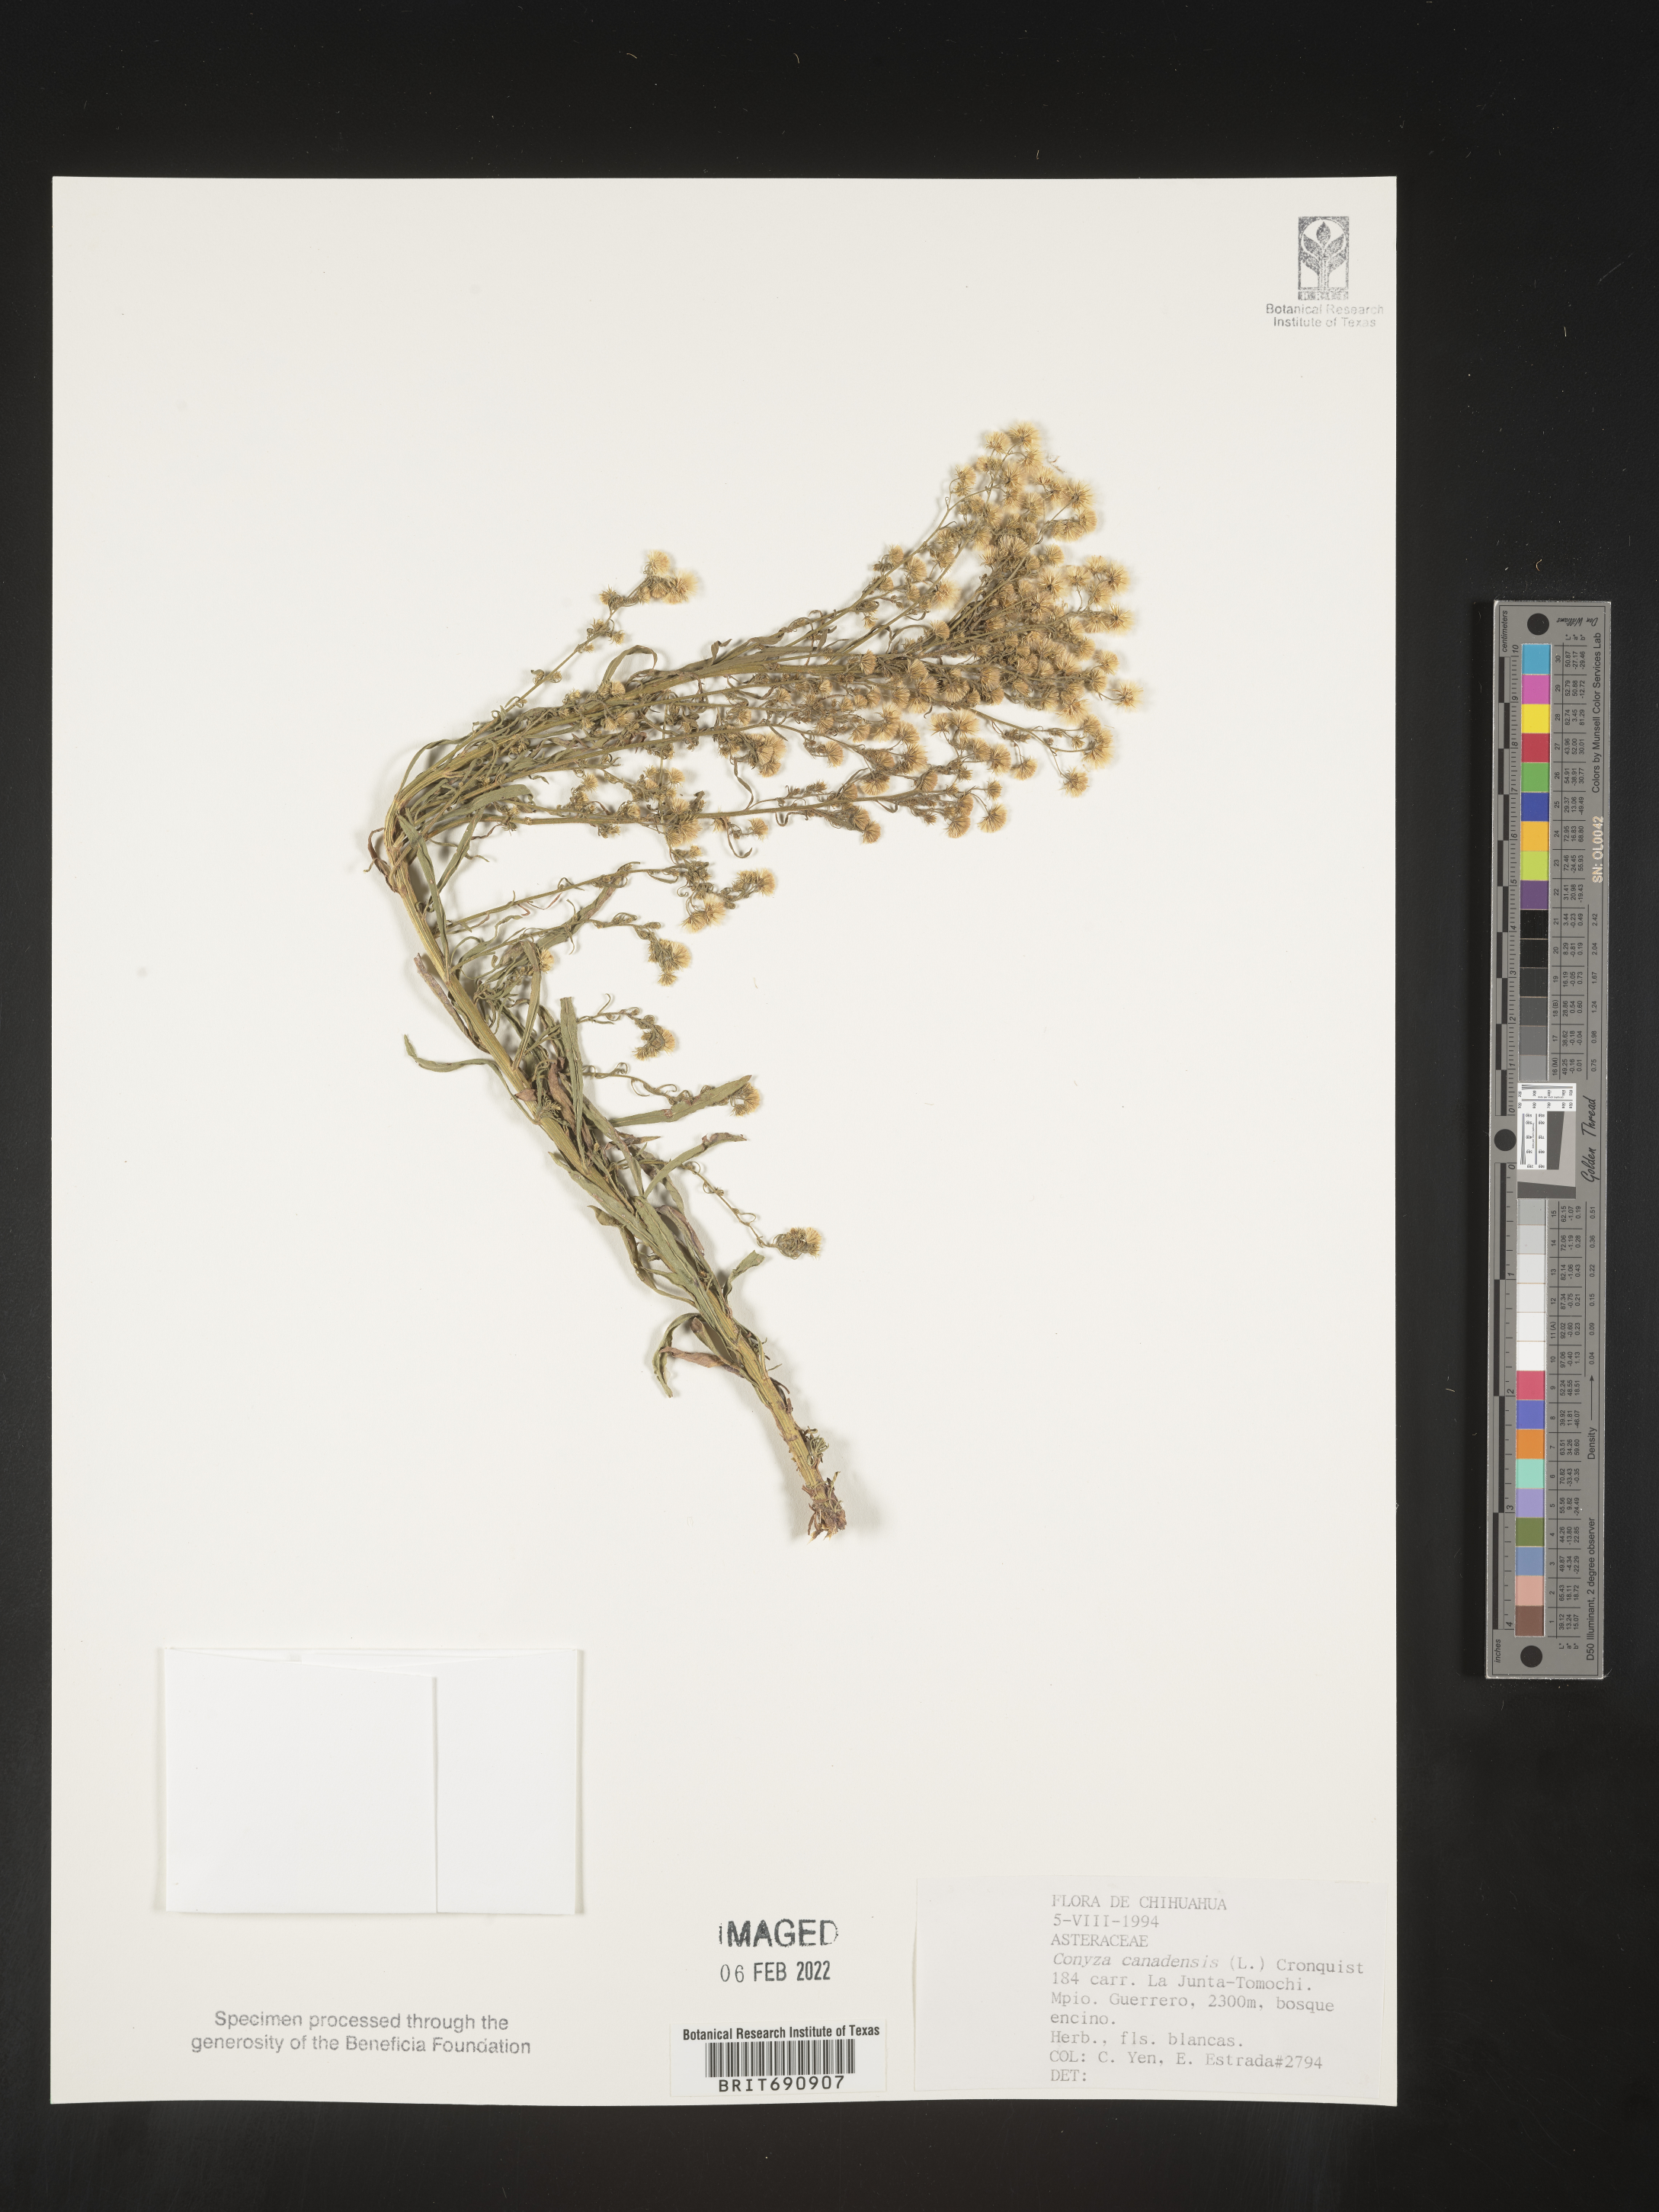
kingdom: Plantae
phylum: Tracheophyta
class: Magnoliopsida
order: Asterales
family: Asteraceae
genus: Erigeron
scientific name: Erigeron canadensis
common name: Canadian fleabane
